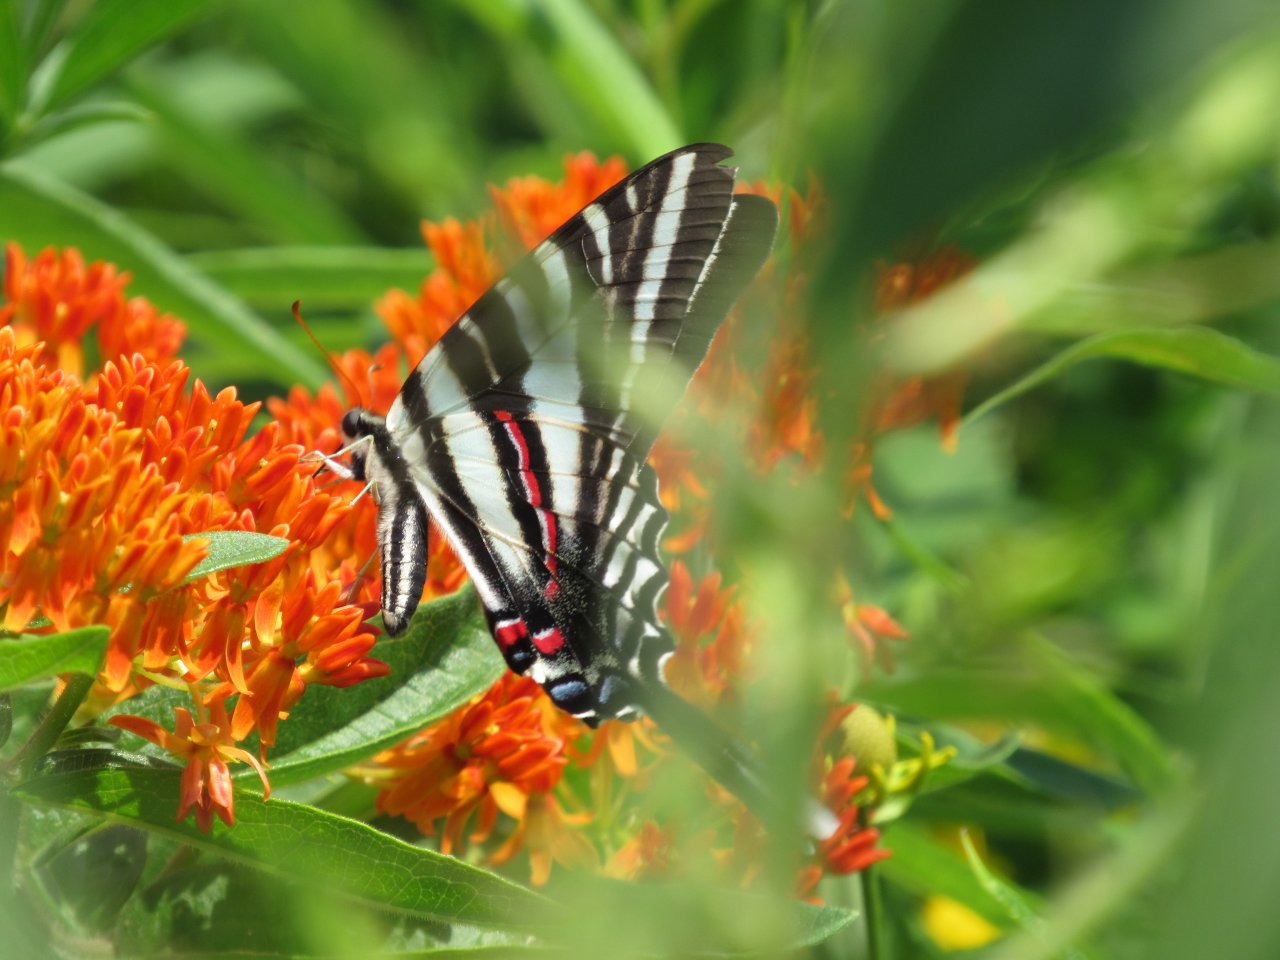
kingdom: Animalia
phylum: Arthropoda
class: Insecta
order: Lepidoptera
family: Papilionidae
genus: Protographium
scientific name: Protographium marcellus
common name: Zebra Swallowtail
